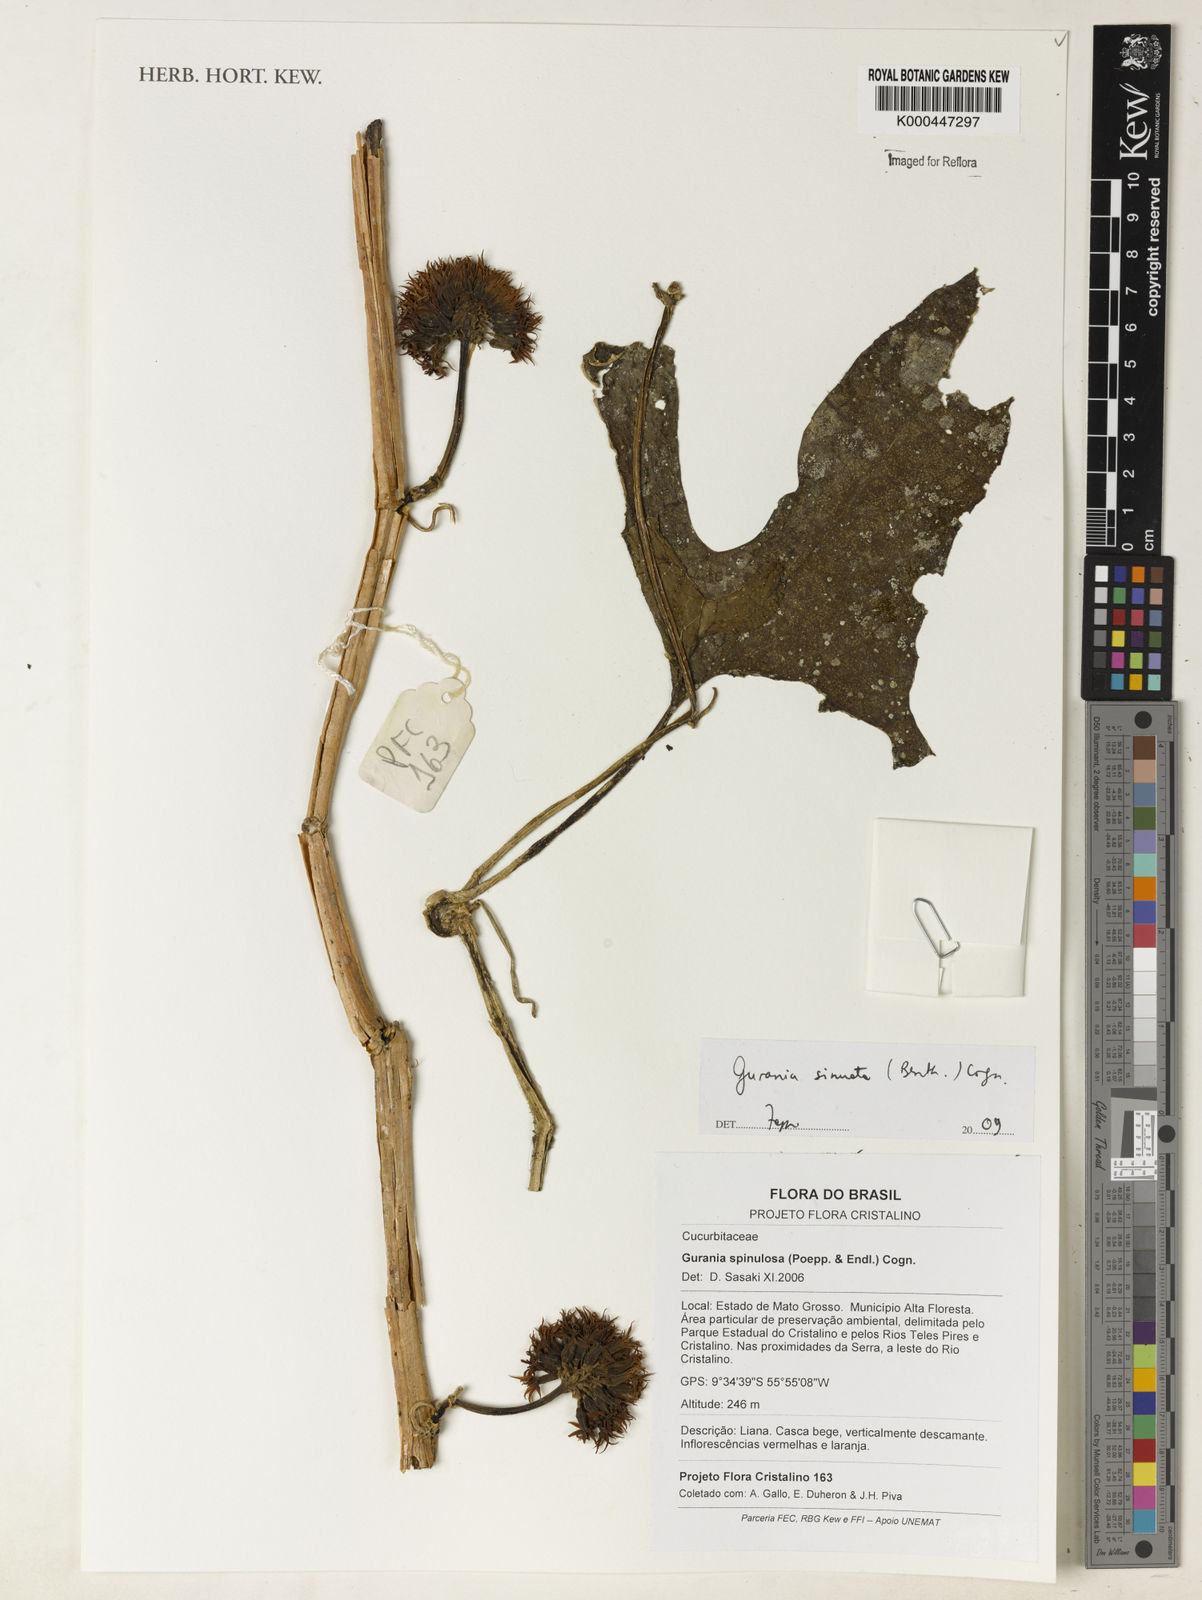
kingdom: Plantae
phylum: Tracheophyta
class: Magnoliopsida
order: Cucurbitales
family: Cucurbitaceae
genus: Gurania
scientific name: Gurania sinuata
